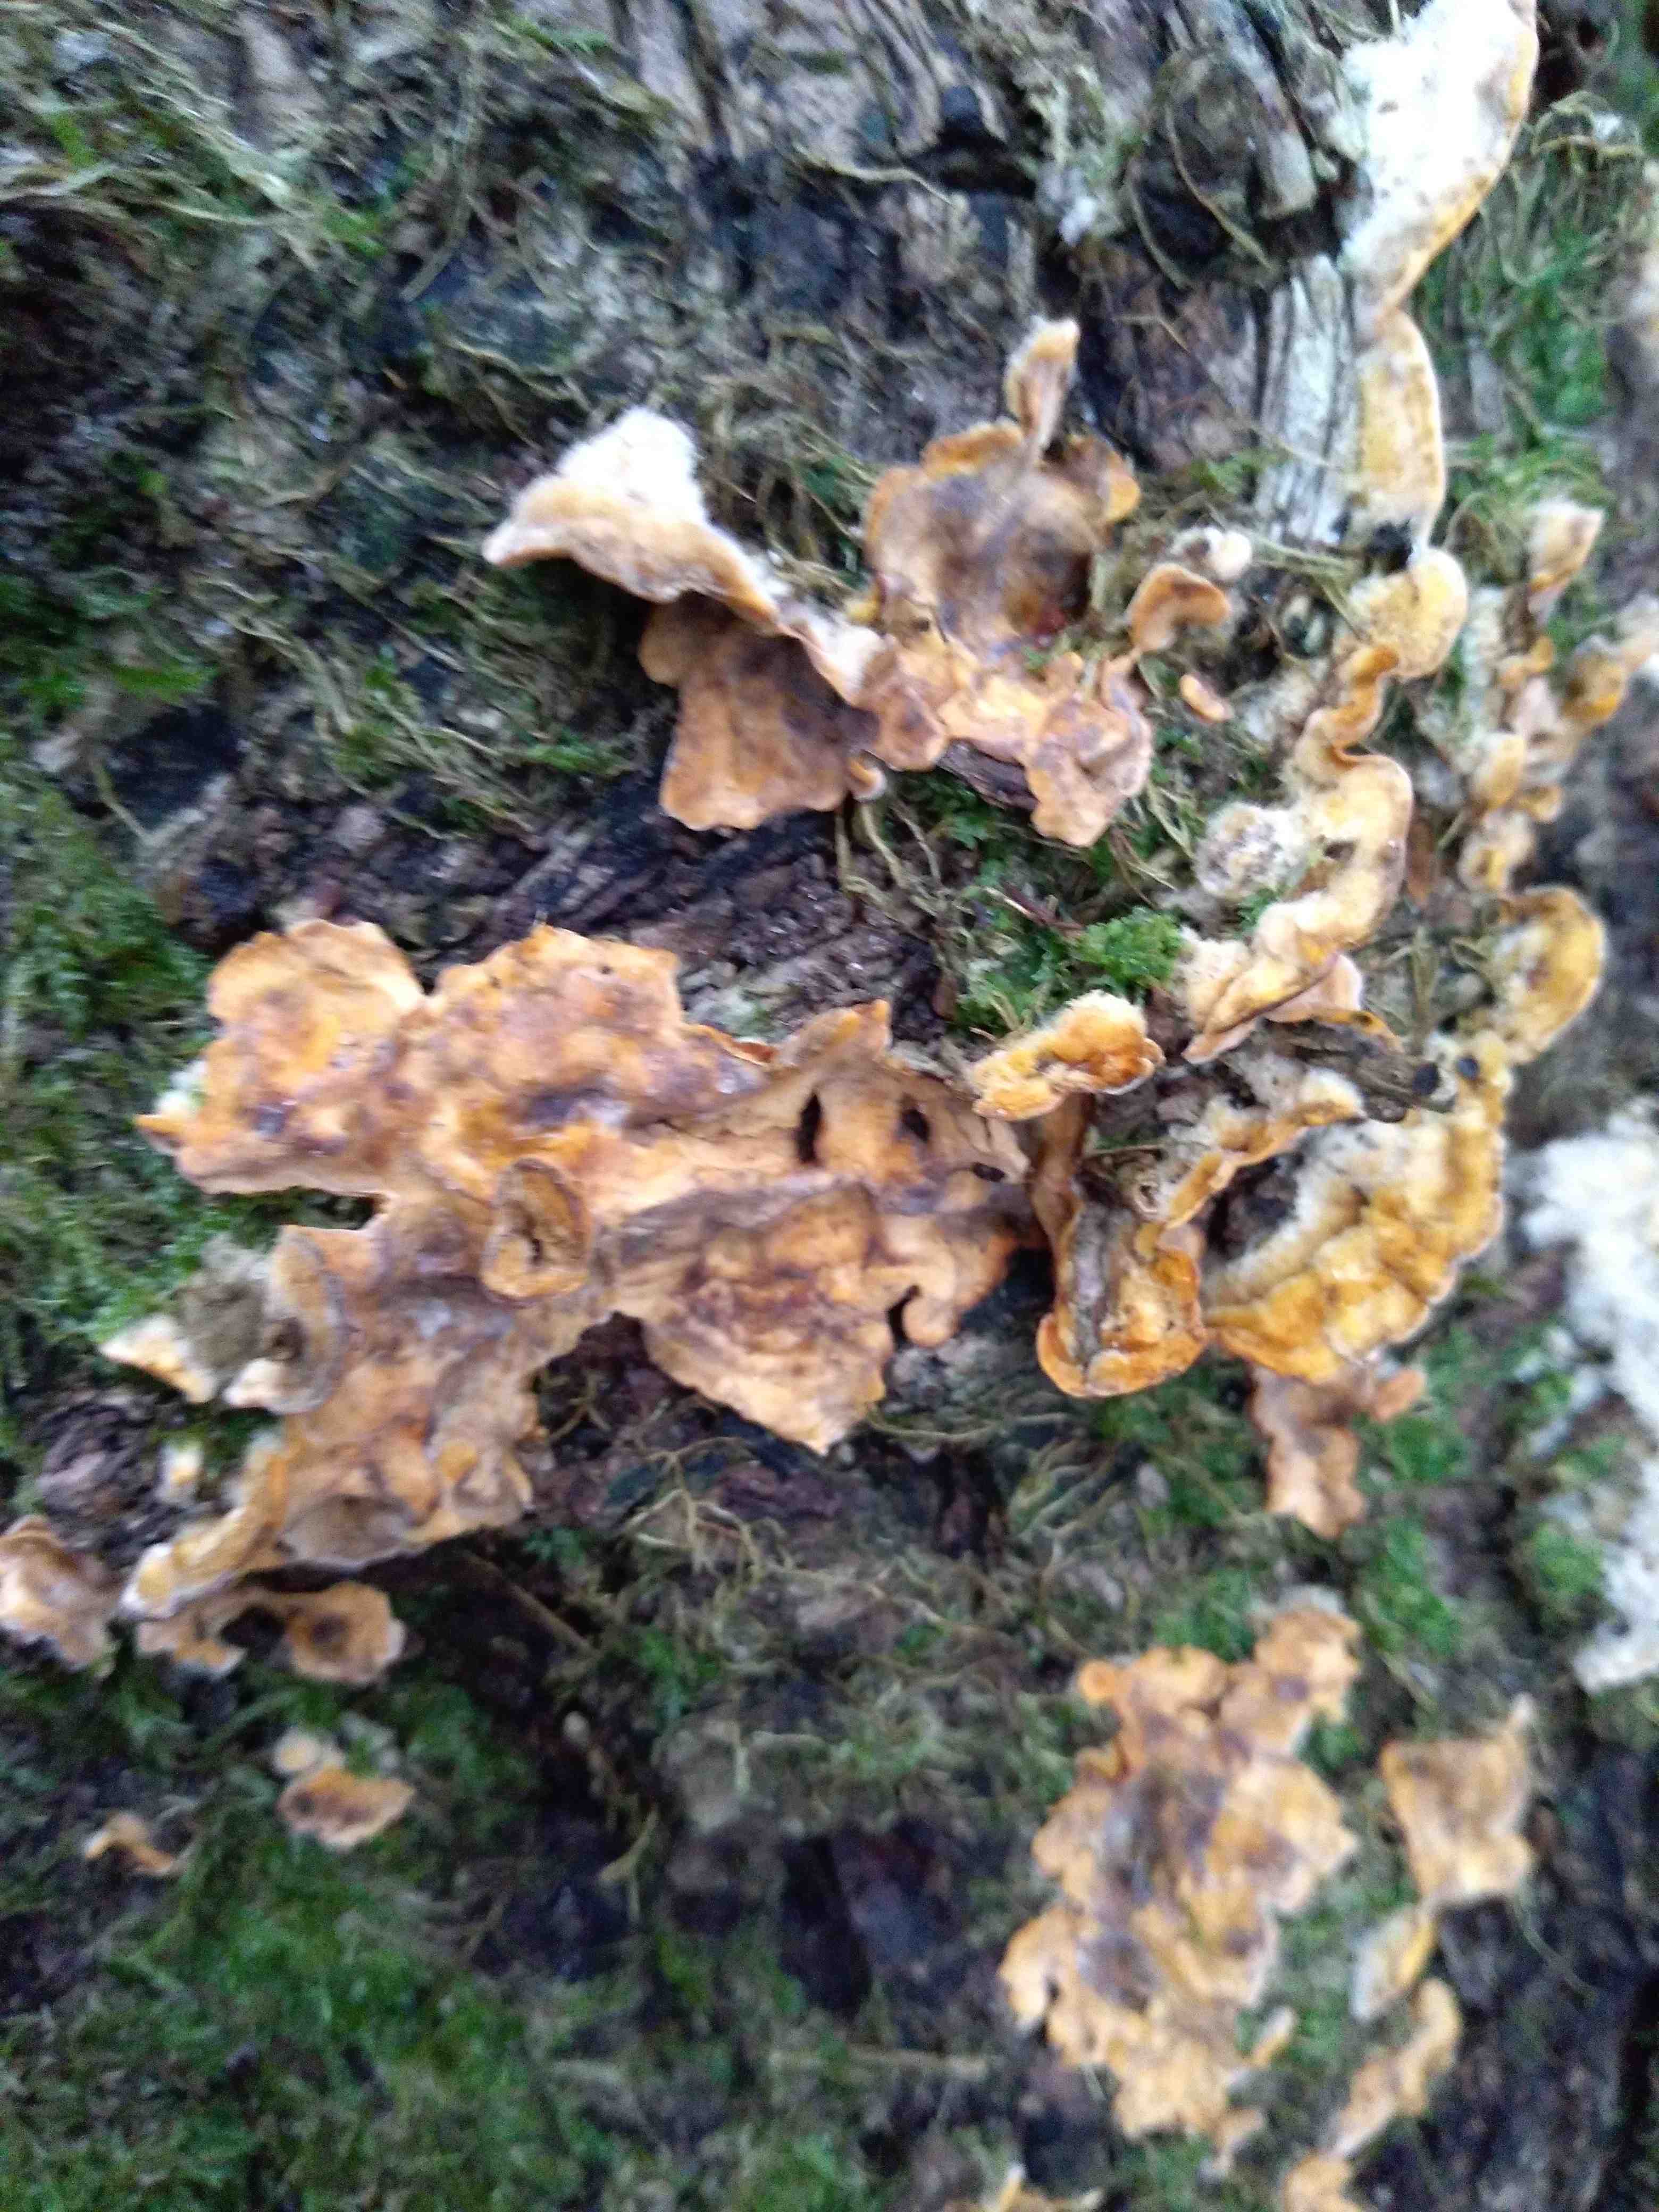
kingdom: Fungi
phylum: Basidiomycota
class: Agaricomycetes
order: Russulales
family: Stereaceae
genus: Stereum
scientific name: Stereum hirsutum
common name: håret lædersvamp
